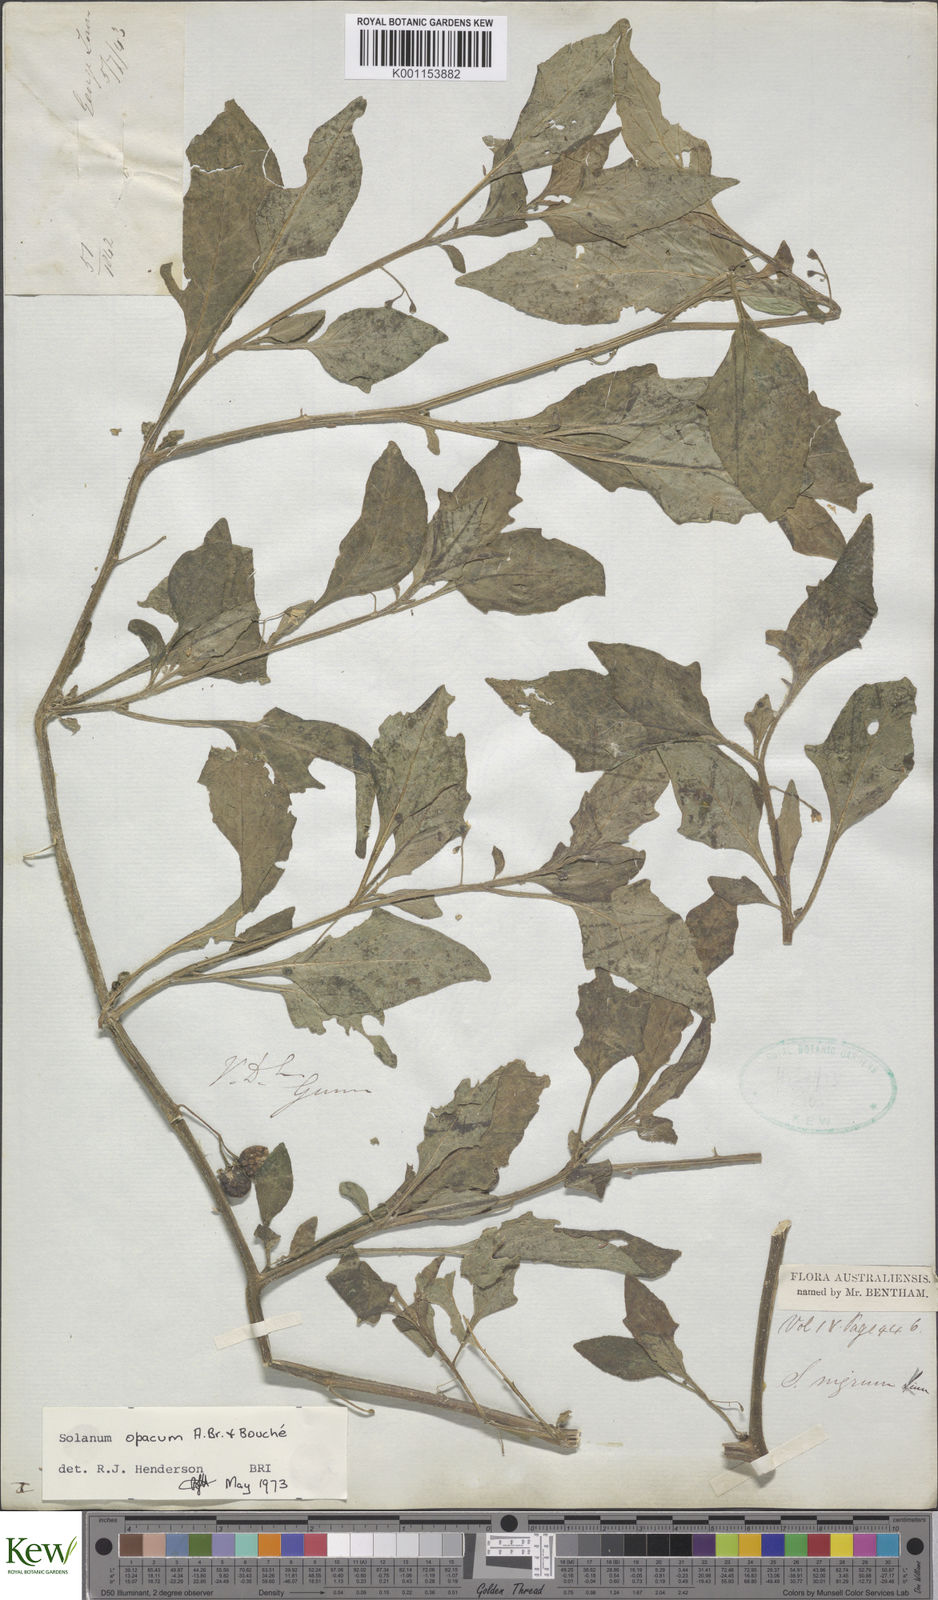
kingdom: Plantae
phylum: Tracheophyta
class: Magnoliopsida
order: Solanales
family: Solanaceae
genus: Solanum
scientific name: Solanum
